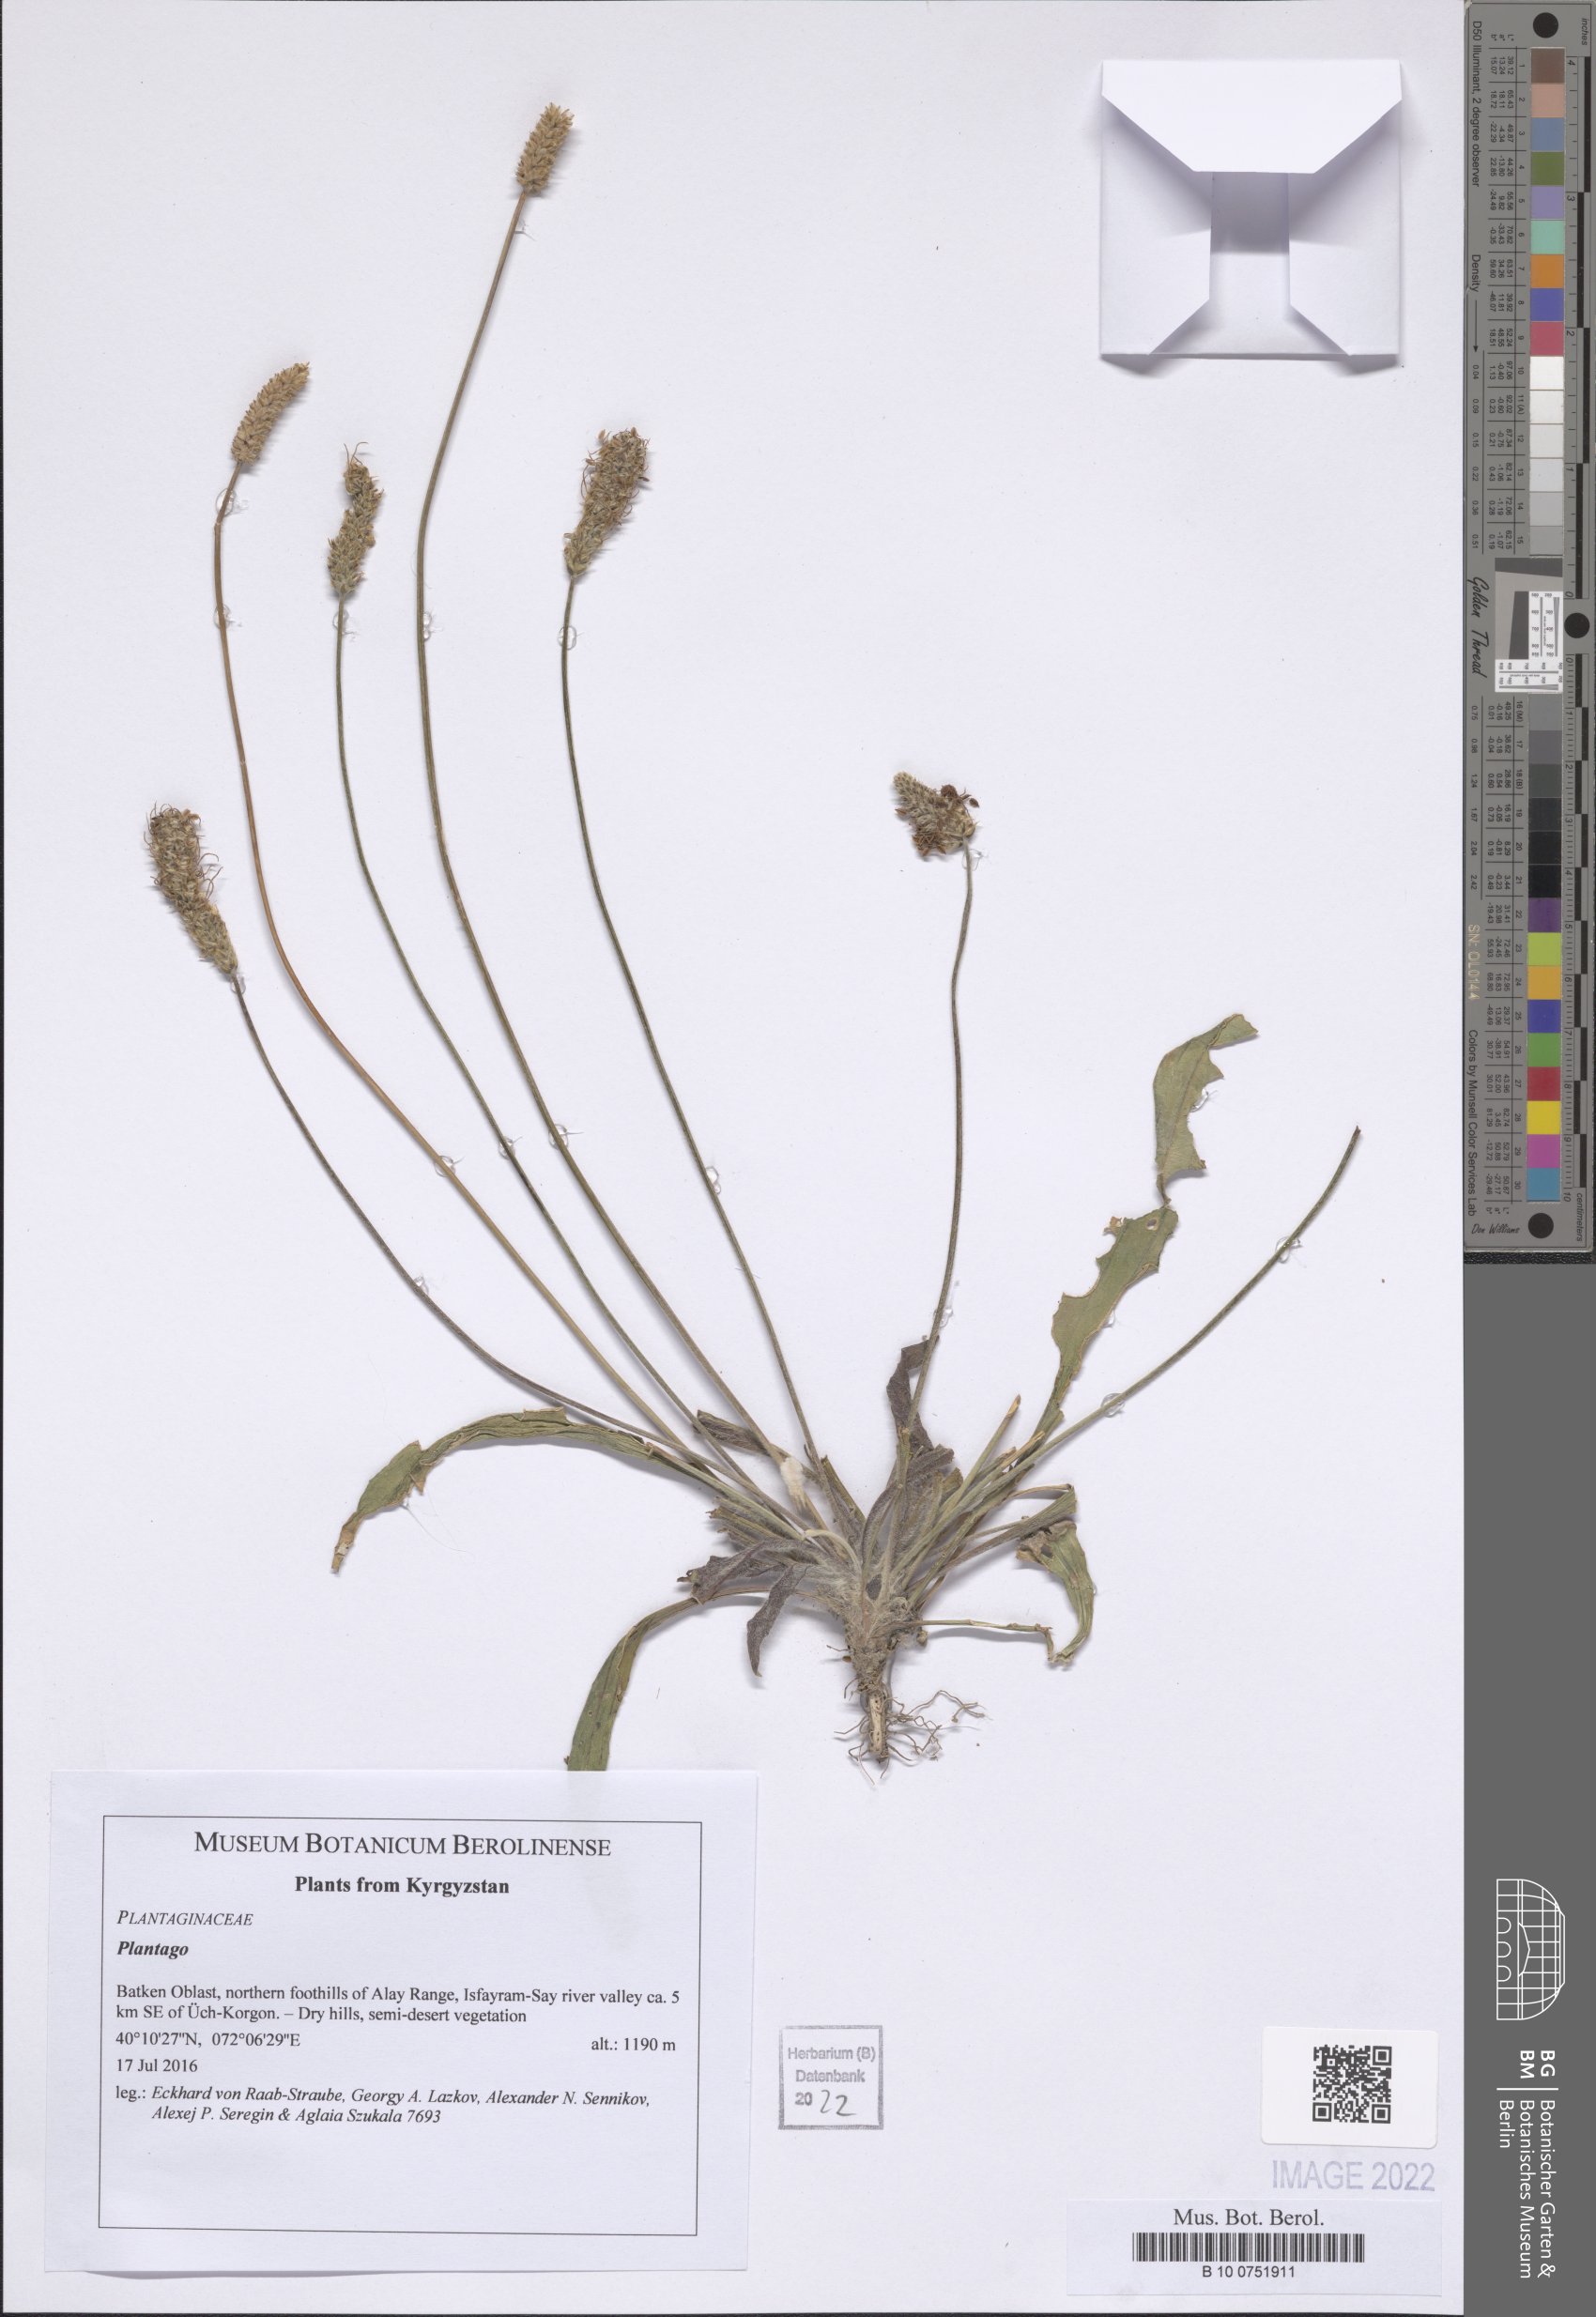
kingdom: Plantae
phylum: Tracheophyta
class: Magnoliopsida
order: Lamiales
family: Plantaginaceae
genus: Plantago
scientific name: Plantago
